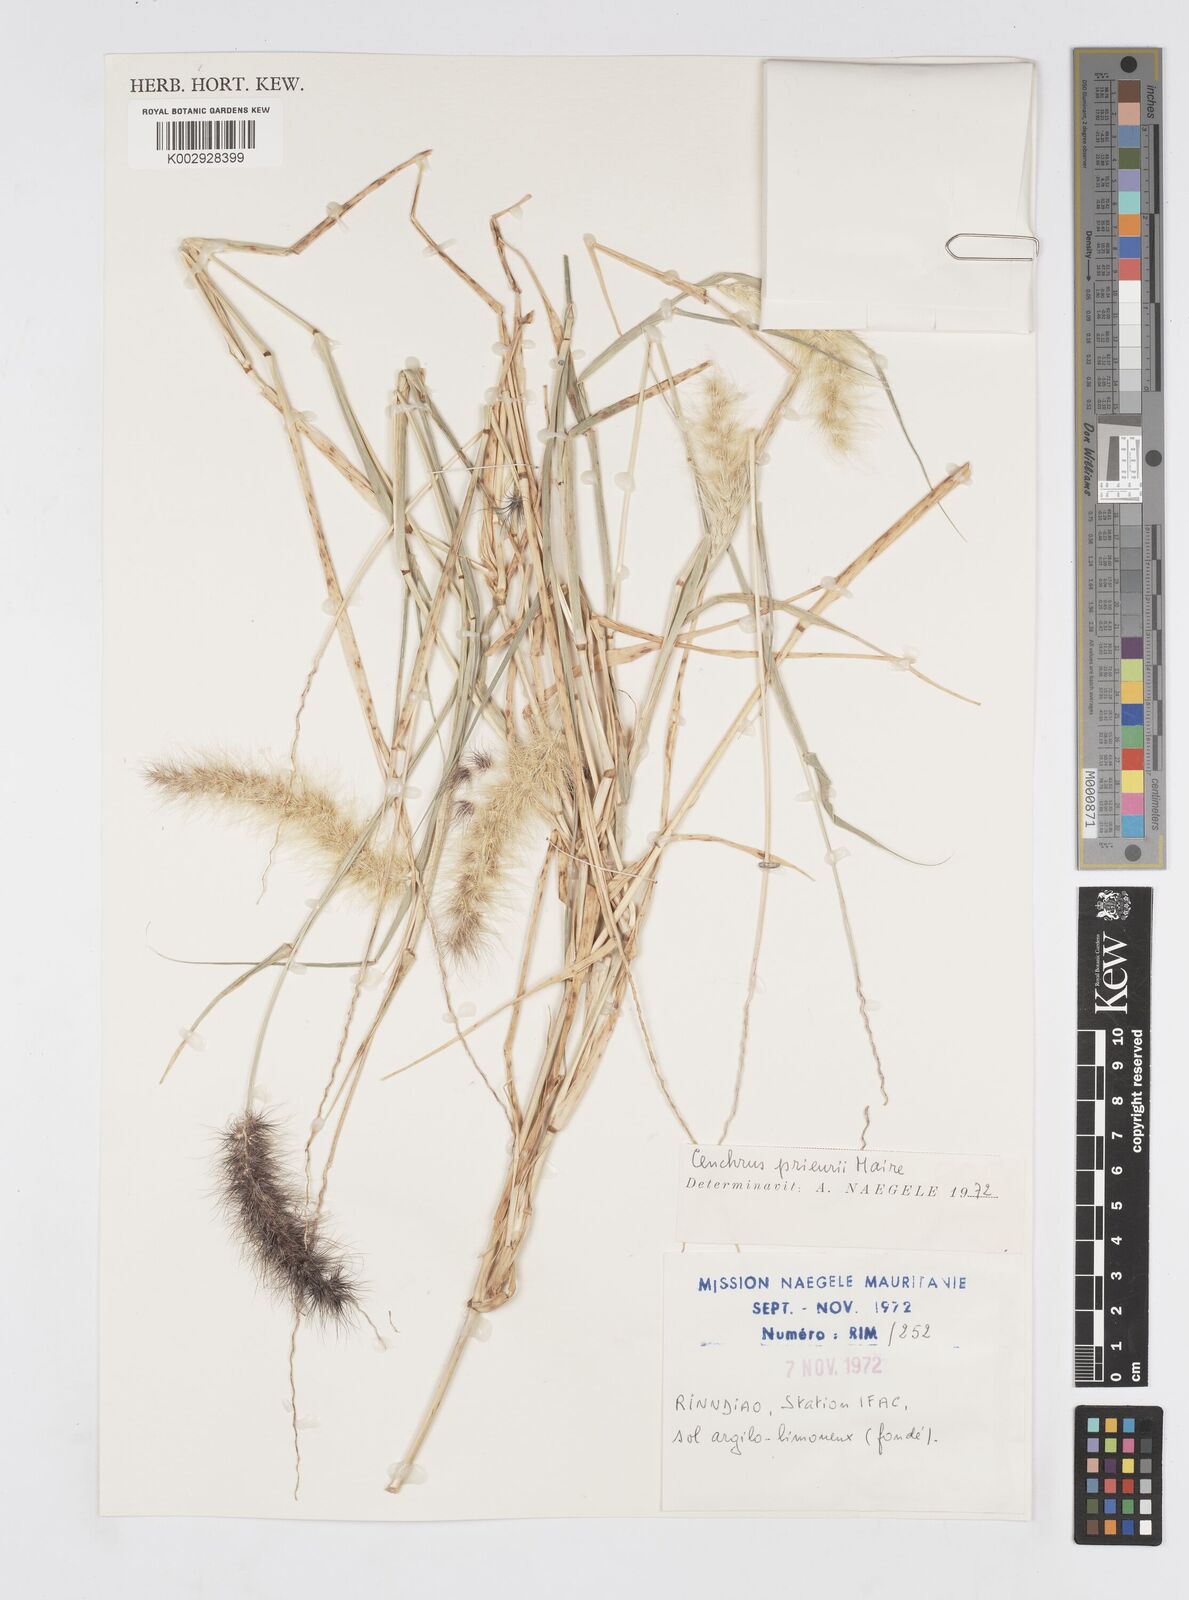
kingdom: Plantae
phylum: Tracheophyta
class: Liliopsida
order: Poales
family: Poaceae
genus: Cenchrus
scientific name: Cenchrus prieurii
